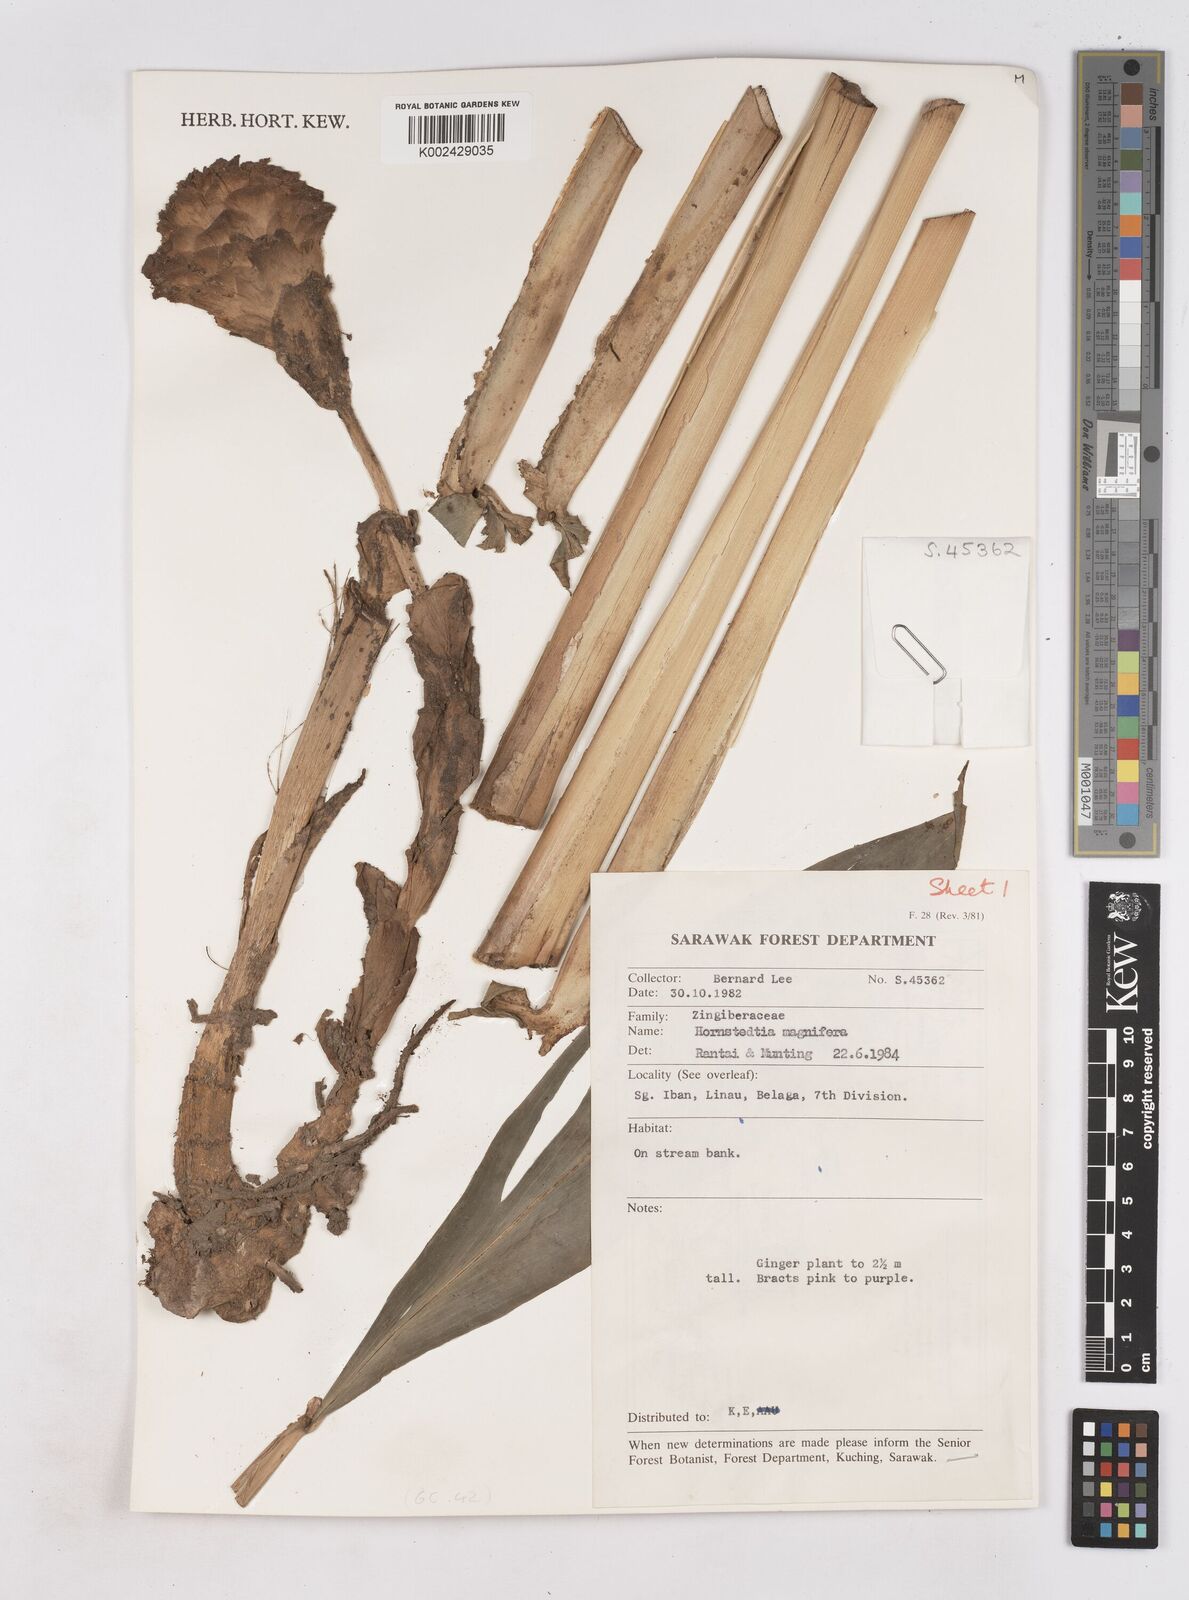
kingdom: Plantae
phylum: Tracheophyta
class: Liliopsida
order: Zingiberales
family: Zingiberaceae
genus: Zingiber
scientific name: Zingiber longipedunculatum
